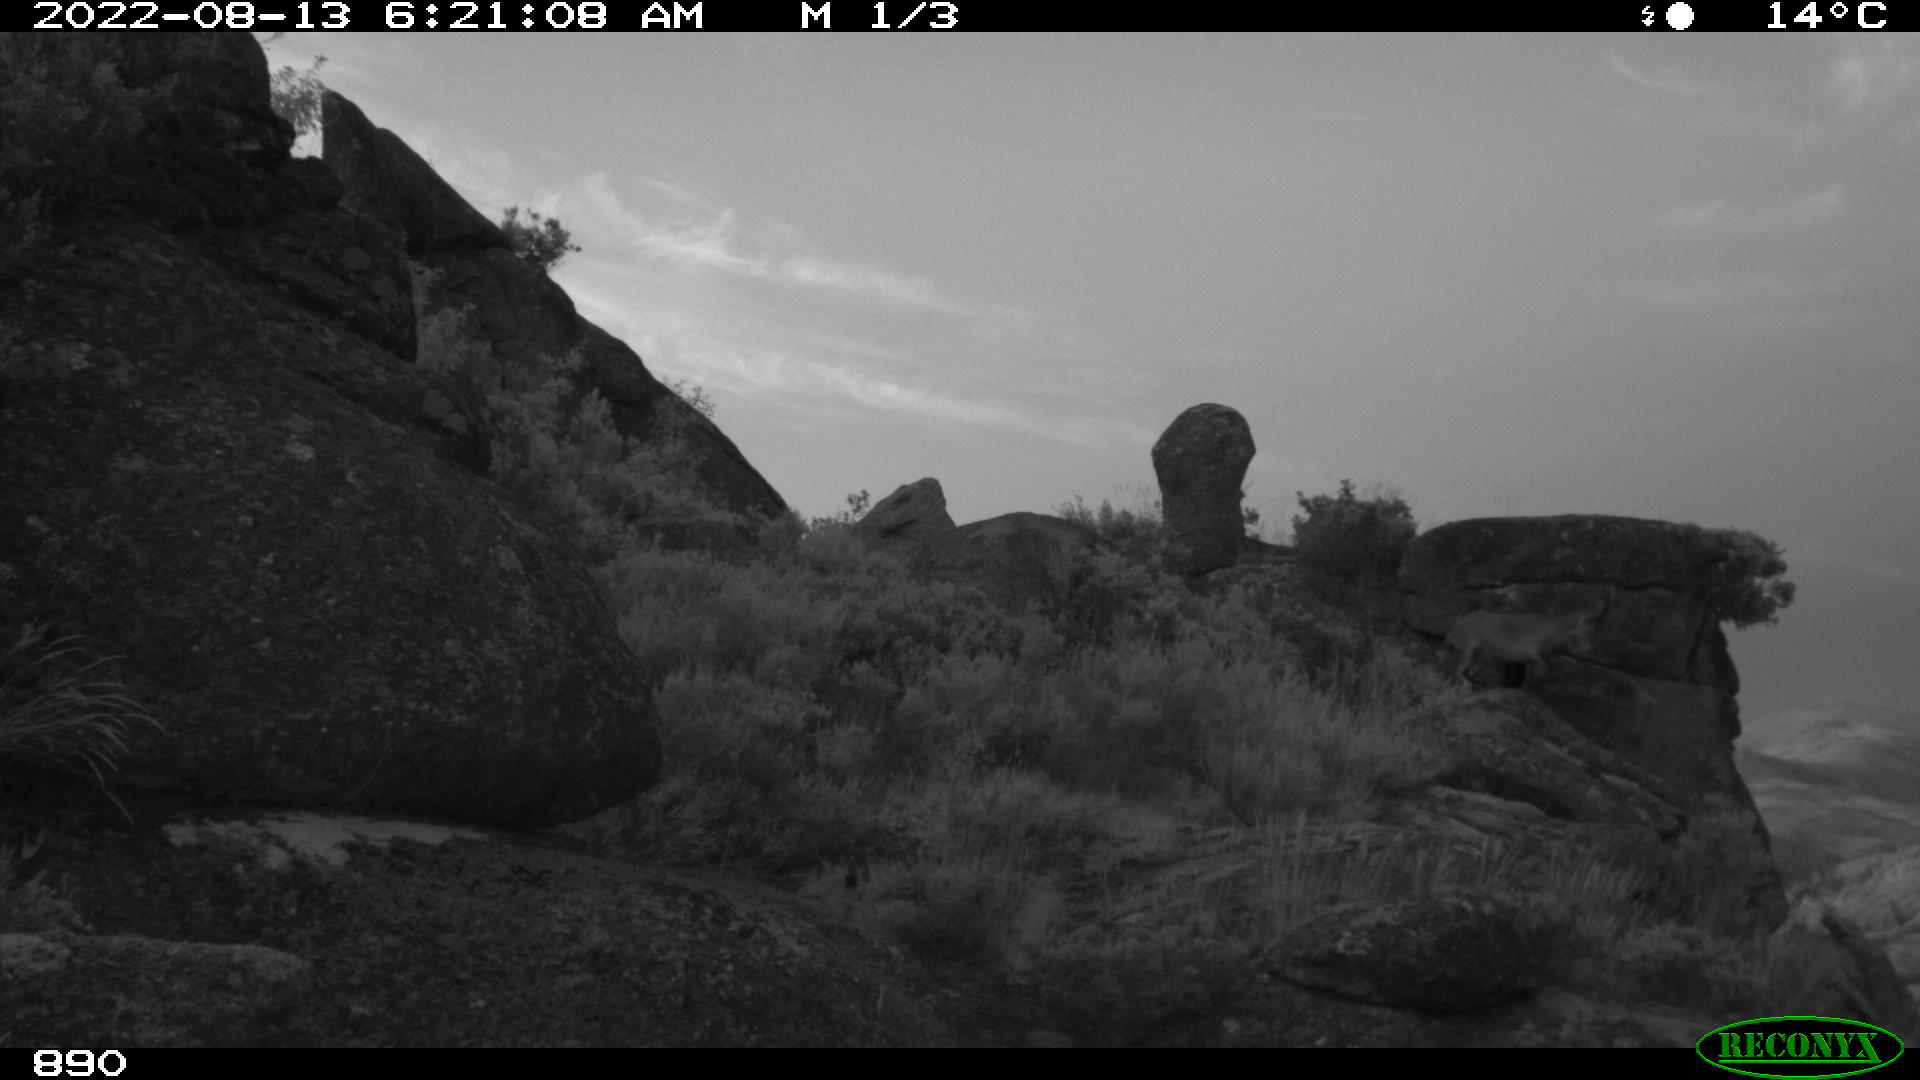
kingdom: Animalia
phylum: Chordata
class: Mammalia
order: Artiodactyla
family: Bovidae
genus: Capra
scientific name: Capra pyrenaica
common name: Spanish ibex
